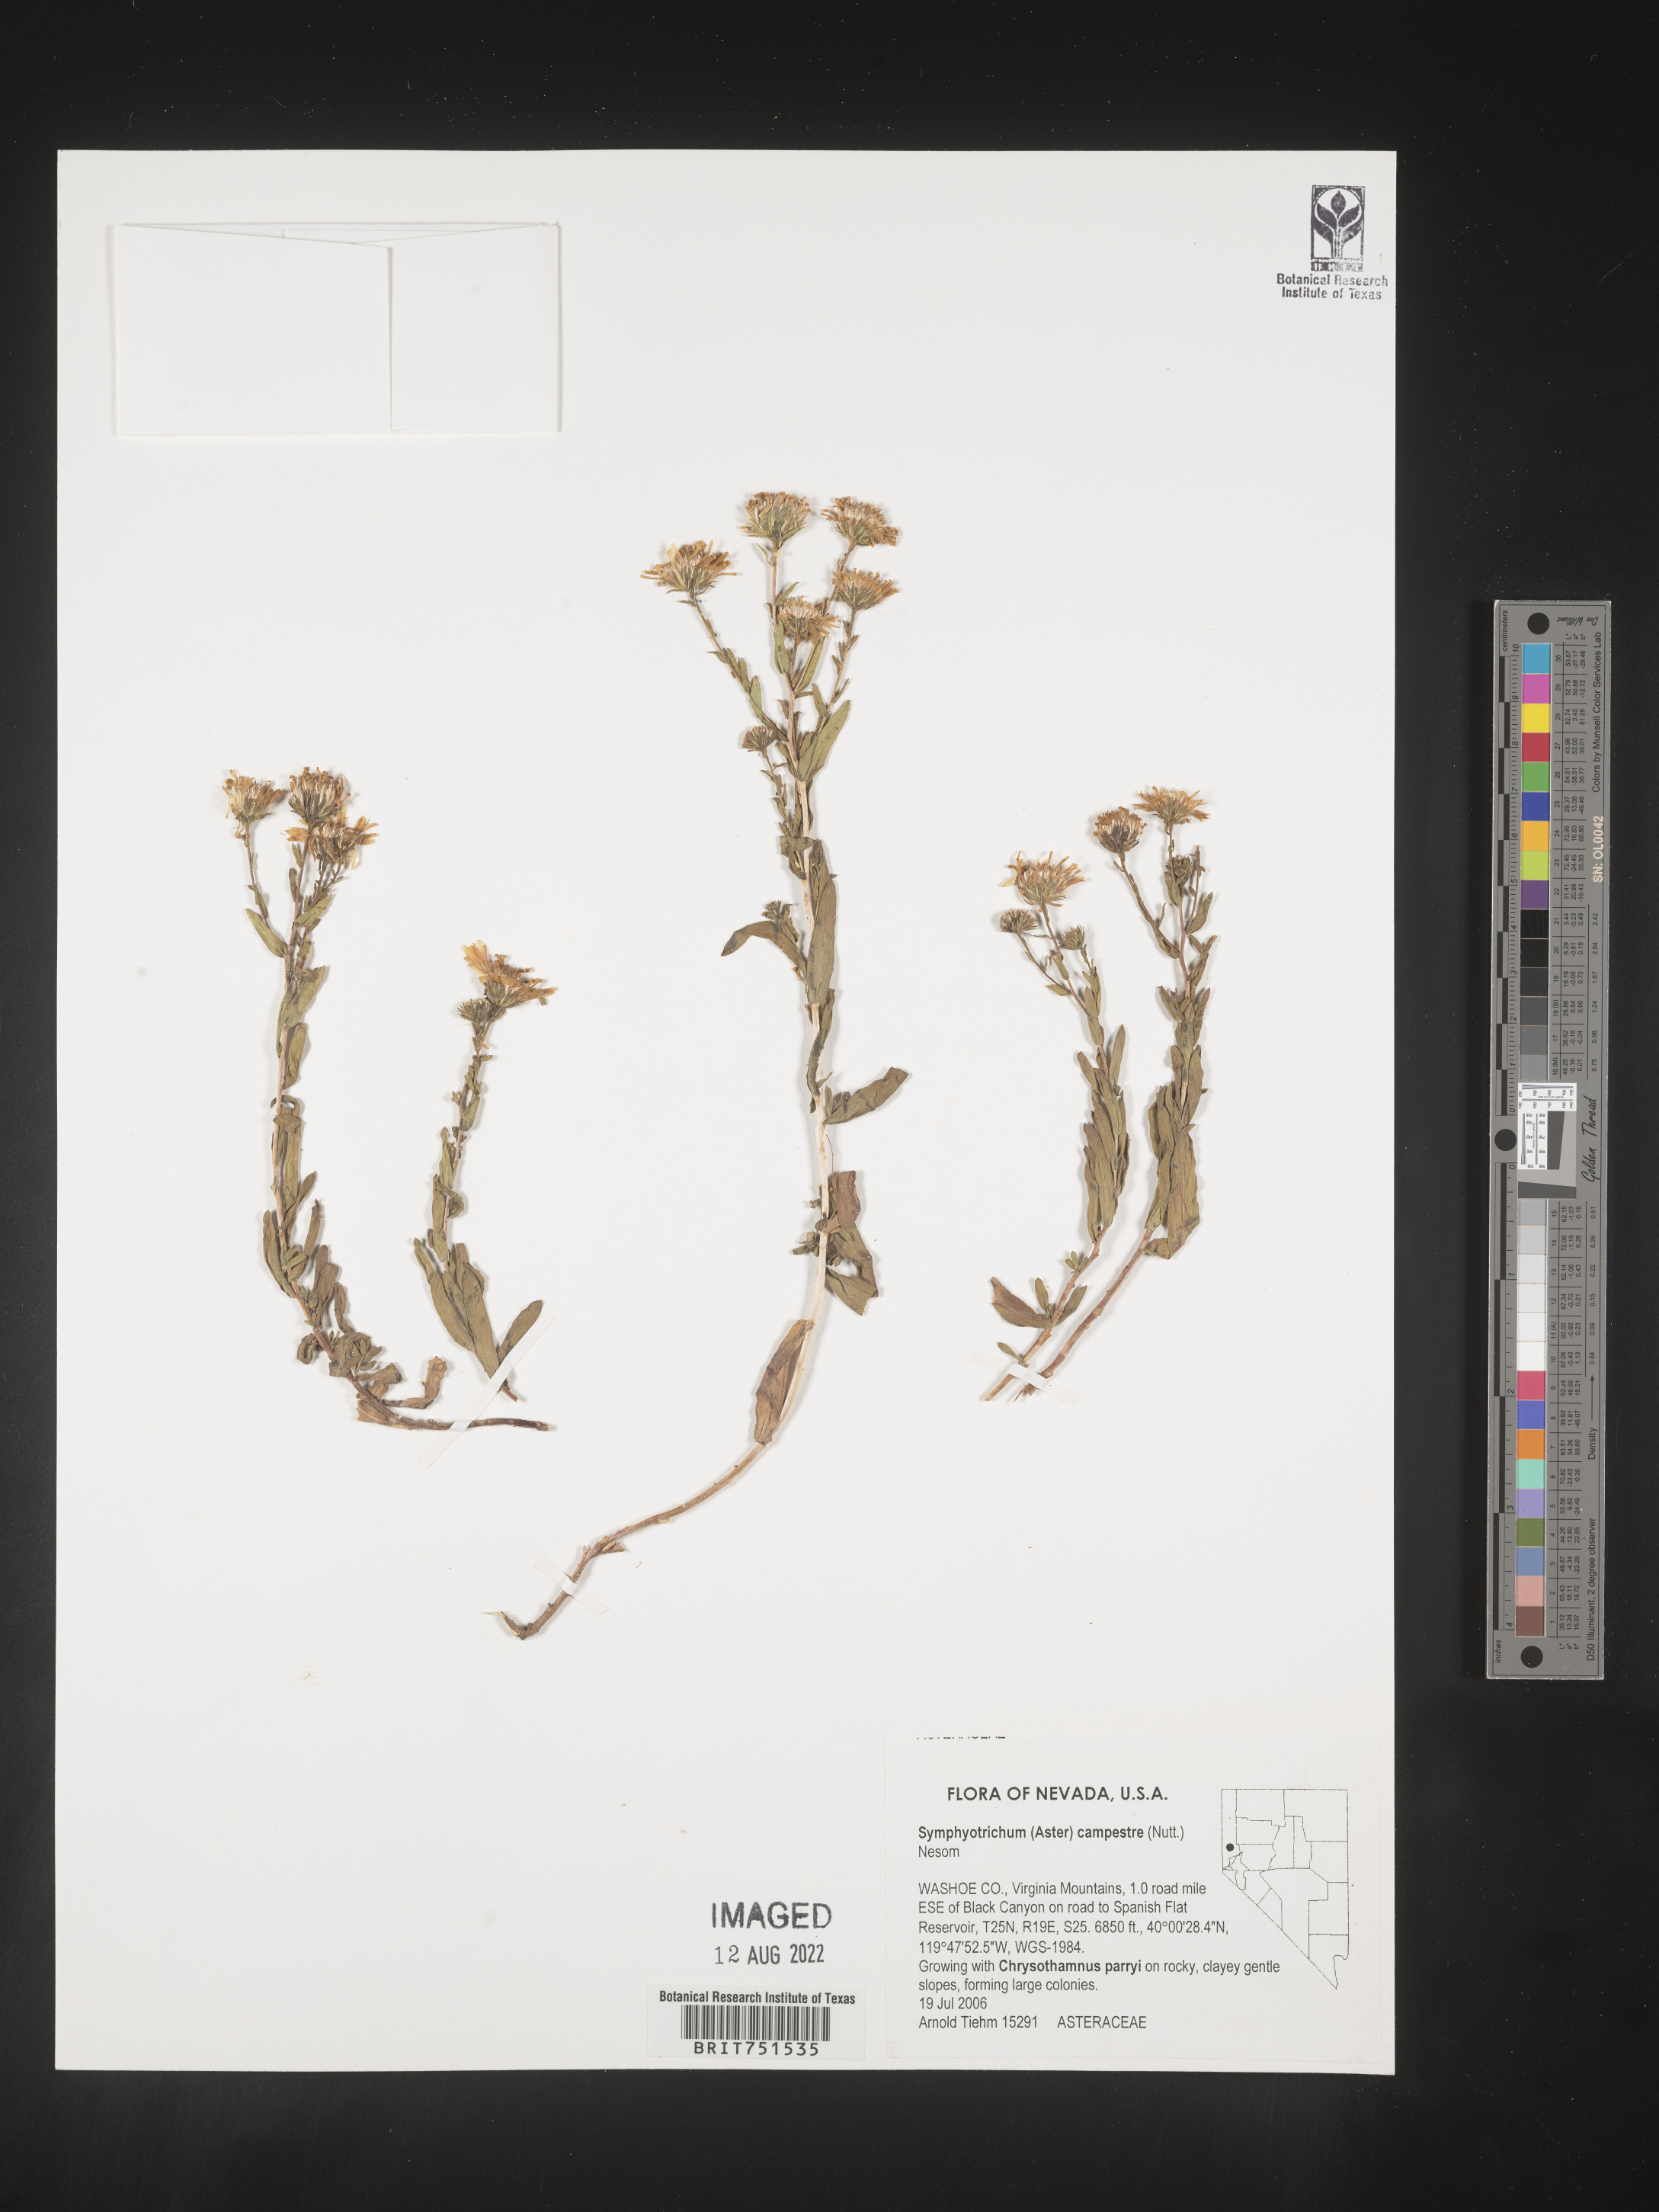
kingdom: Plantae
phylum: Tracheophyta
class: Magnoliopsida
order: Asterales
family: Asteraceae
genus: Symphyotrichum
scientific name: Symphyotrichum campestre
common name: Meadow aster
